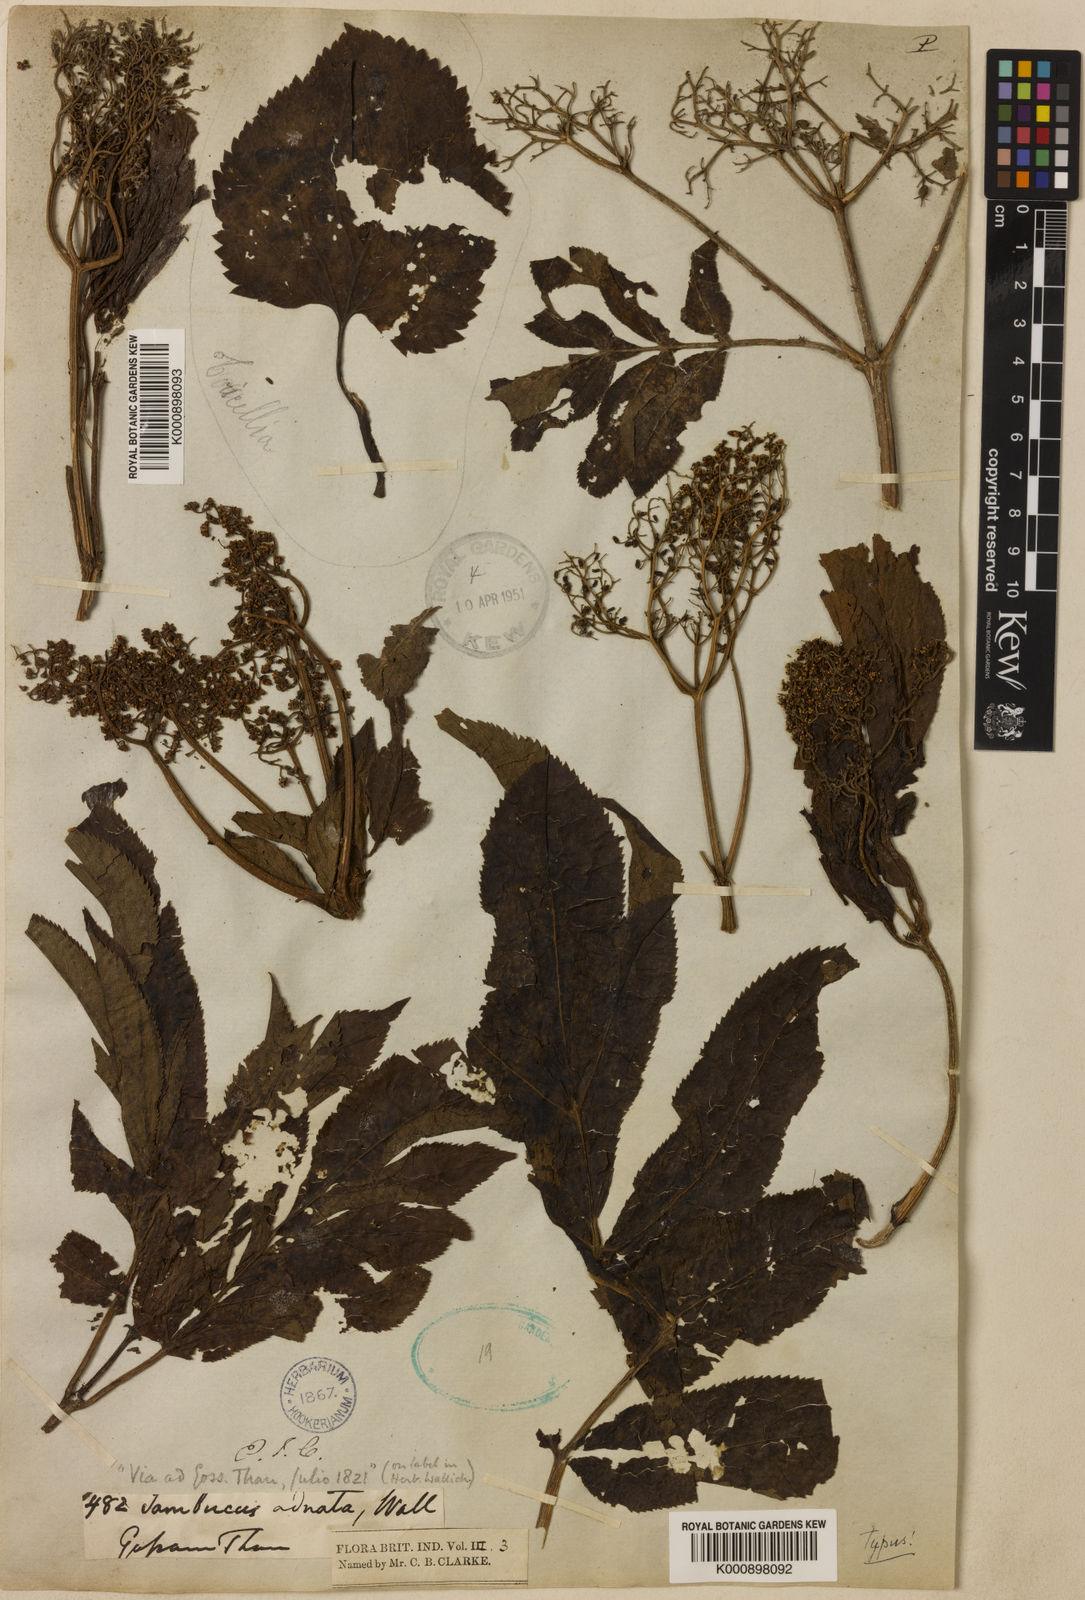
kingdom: Plantae
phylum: Tracheophyta
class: Magnoliopsida
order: Dipsacales
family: Viburnaceae
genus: Sambucus
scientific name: Sambucus adnata
